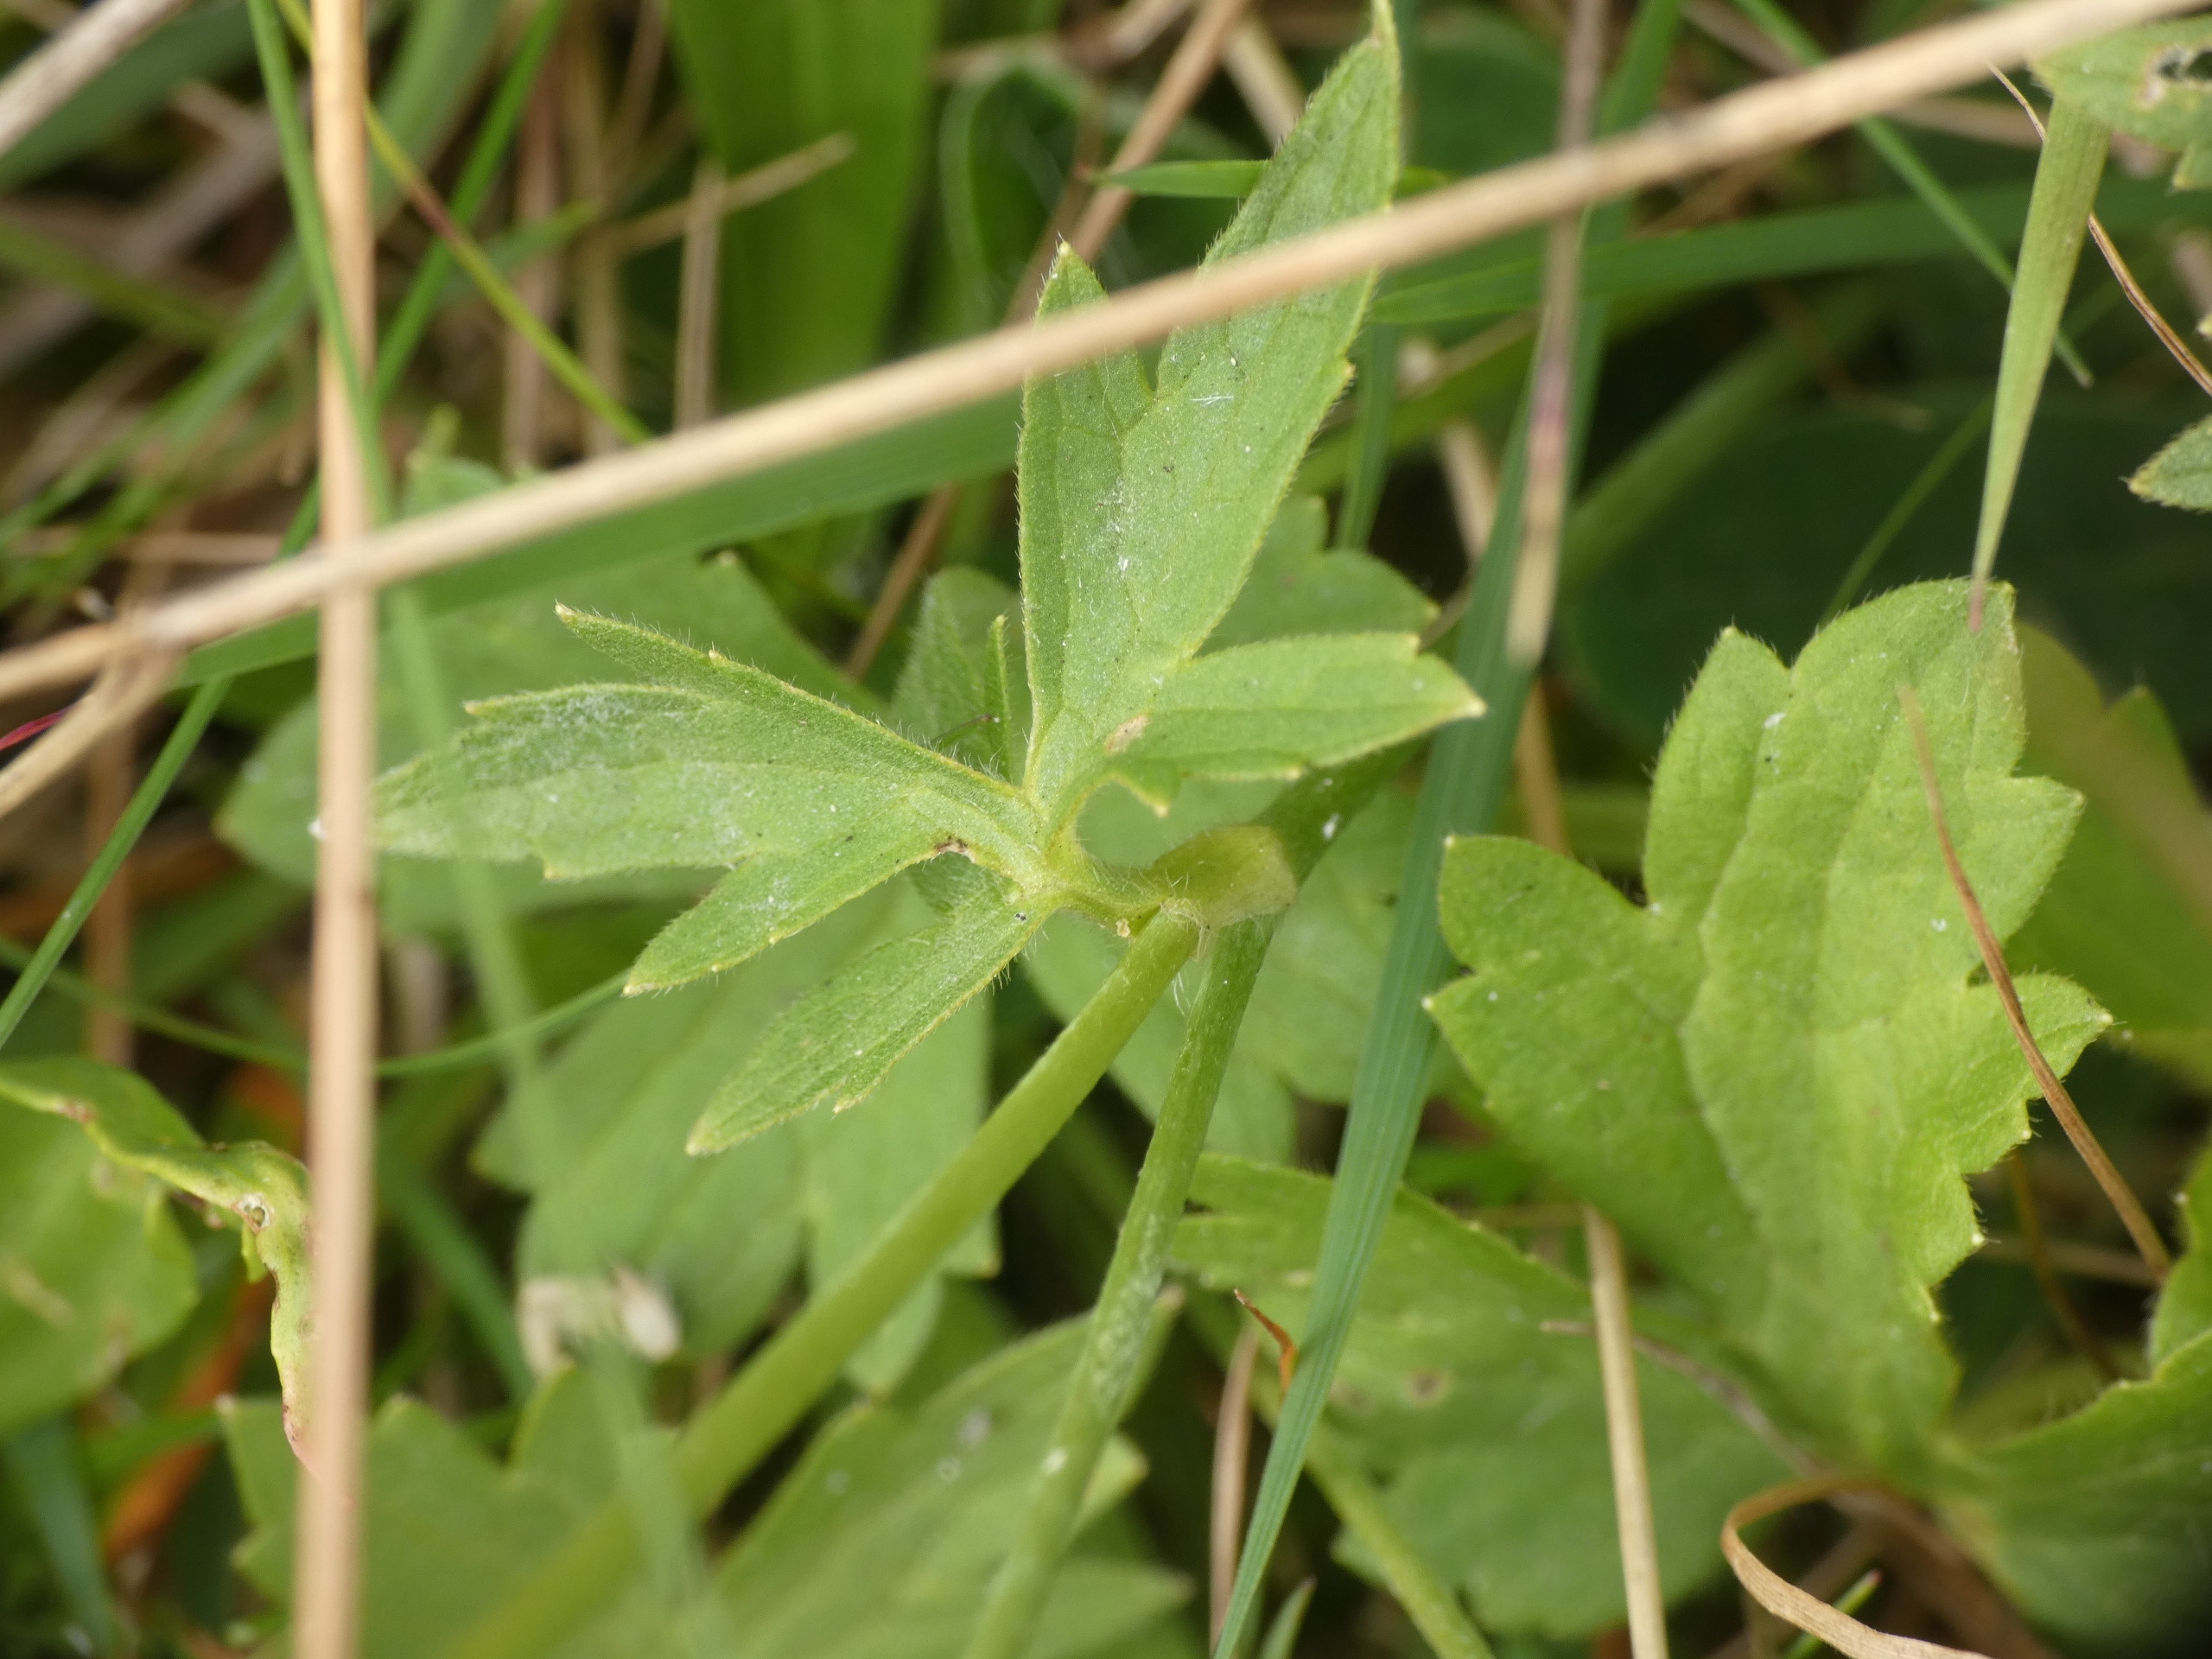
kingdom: Plantae
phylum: Tracheophyta
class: Magnoliopsida
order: Ranunculales
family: Ranunculaceae
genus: Ranunculus
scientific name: Ranunculus acris
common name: Bidende ranunkel
